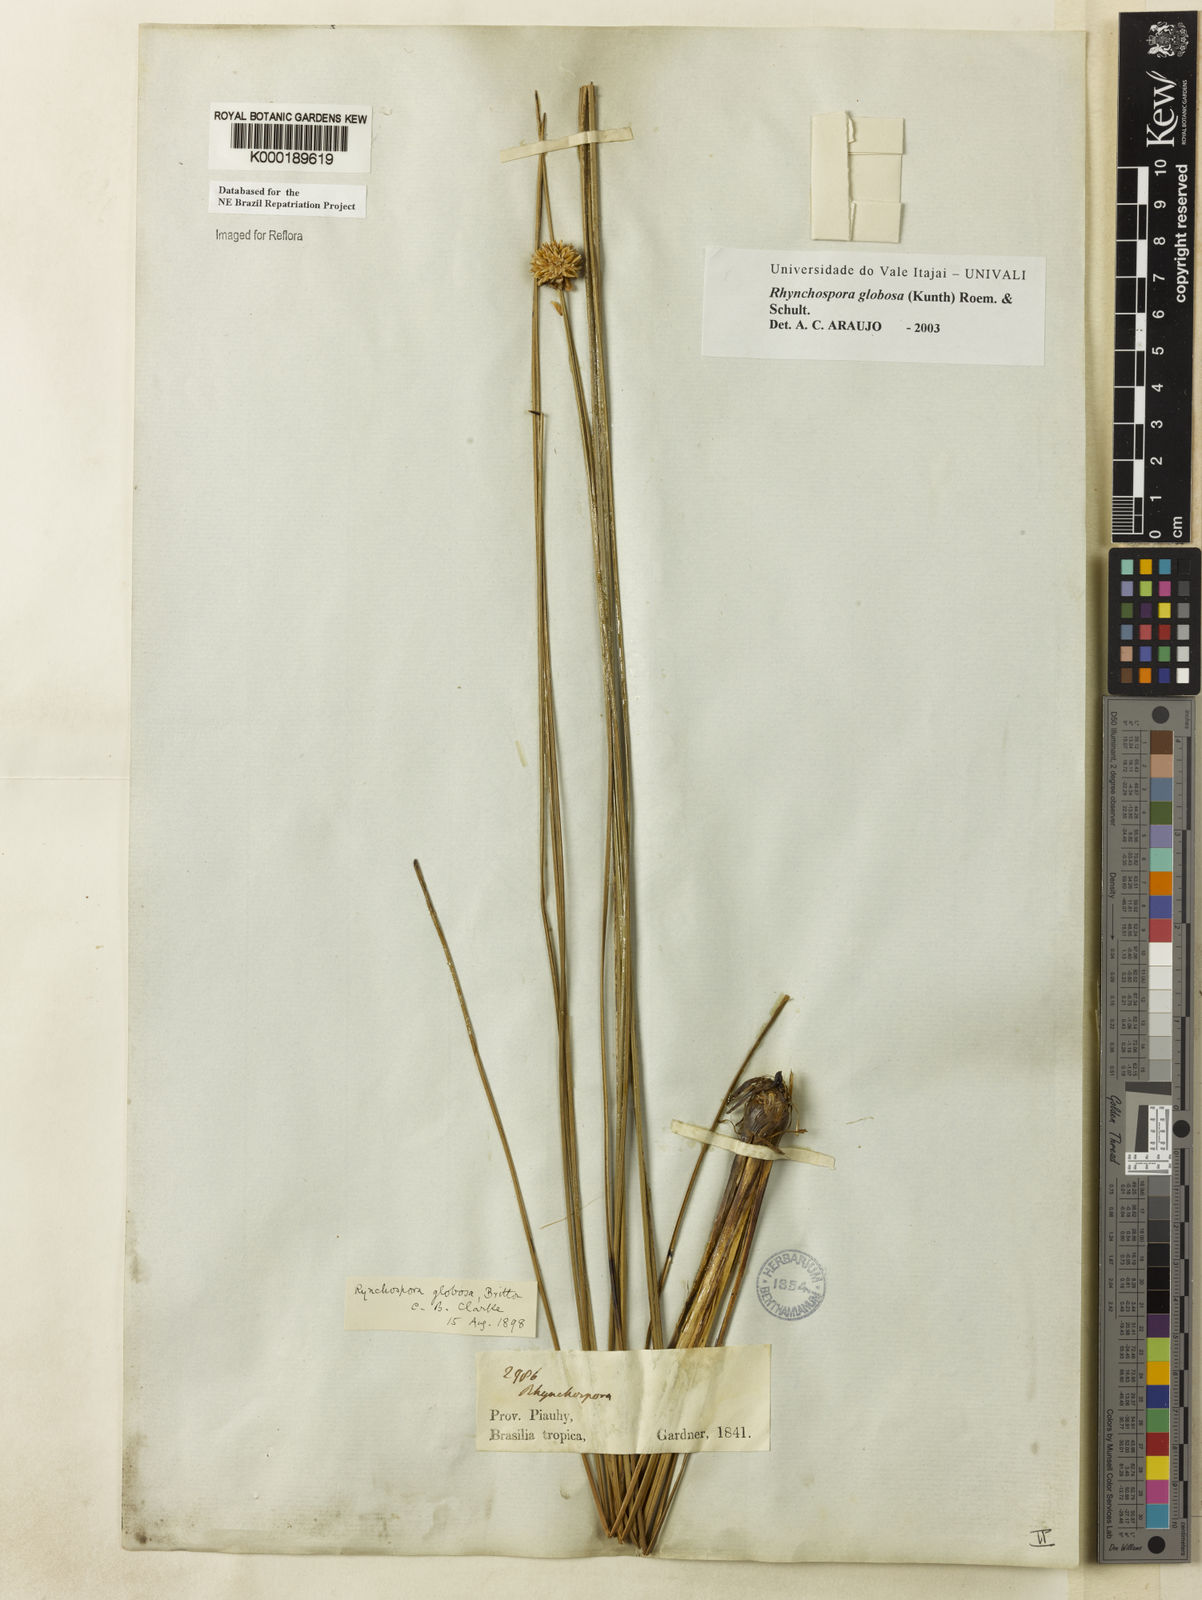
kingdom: Plantae
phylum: Tracheophyta
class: Liliopsida
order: Poales
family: Cyperaceae
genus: Rhynchospora
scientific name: Rhynchospora globosa
